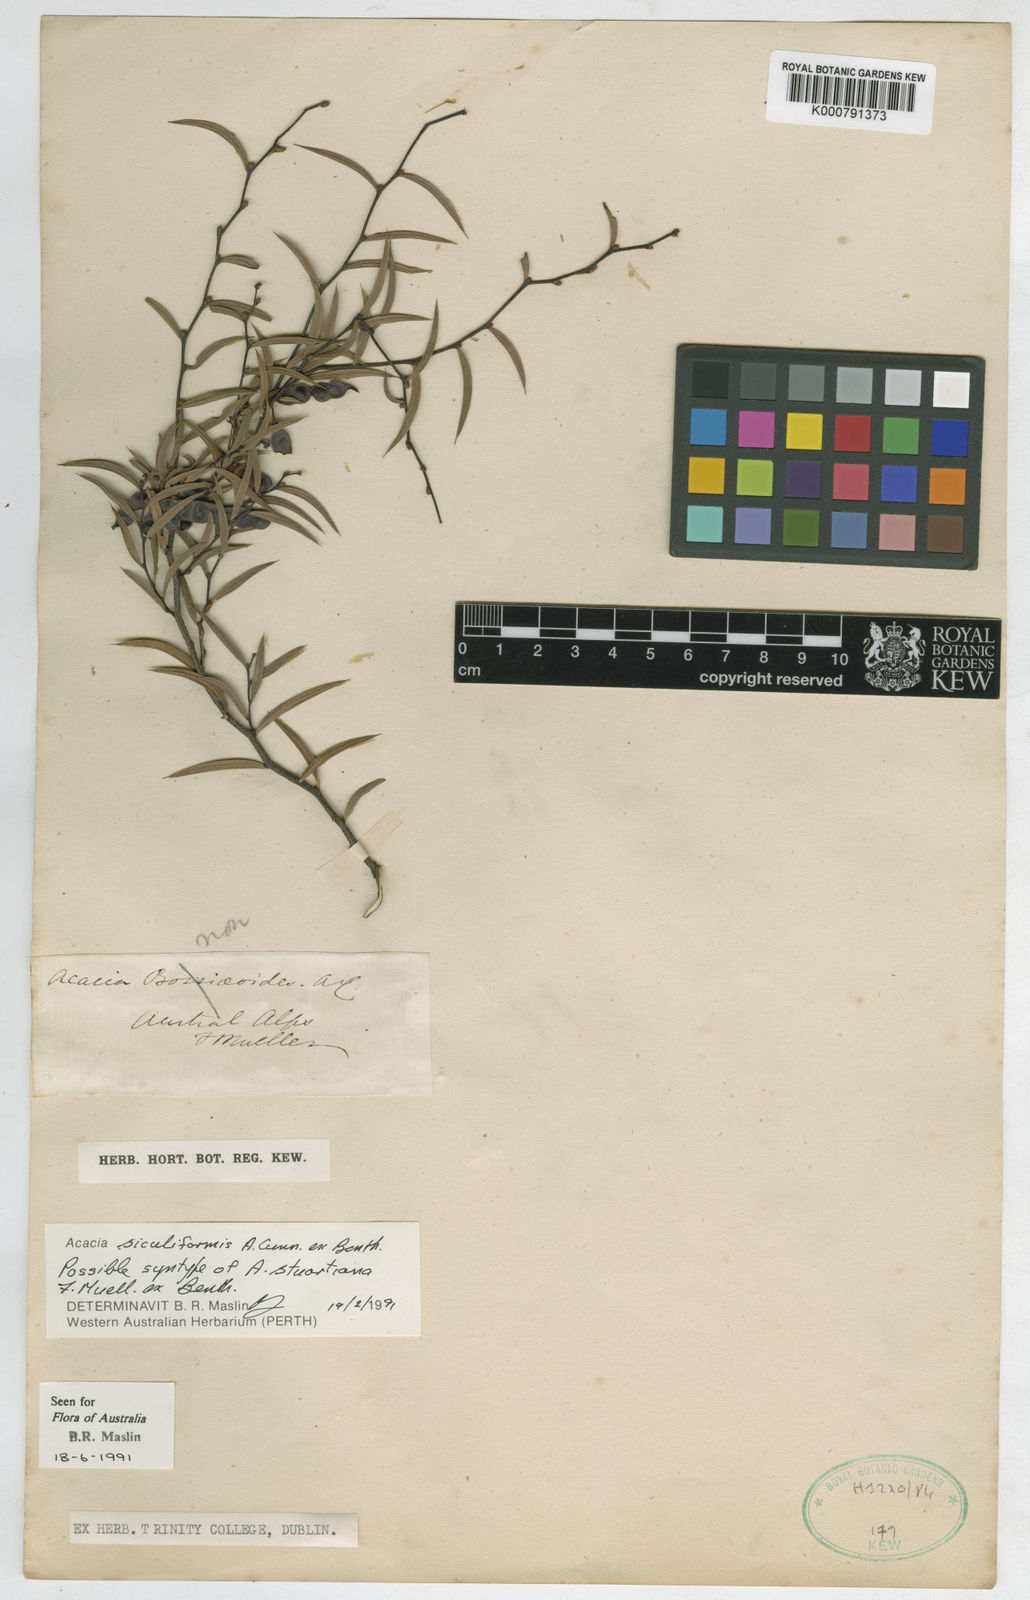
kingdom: Plantae
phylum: Tracheophyta
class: Magnoliopsida
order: Fabales
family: Fabaceae
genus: Acacia
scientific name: Acacia
